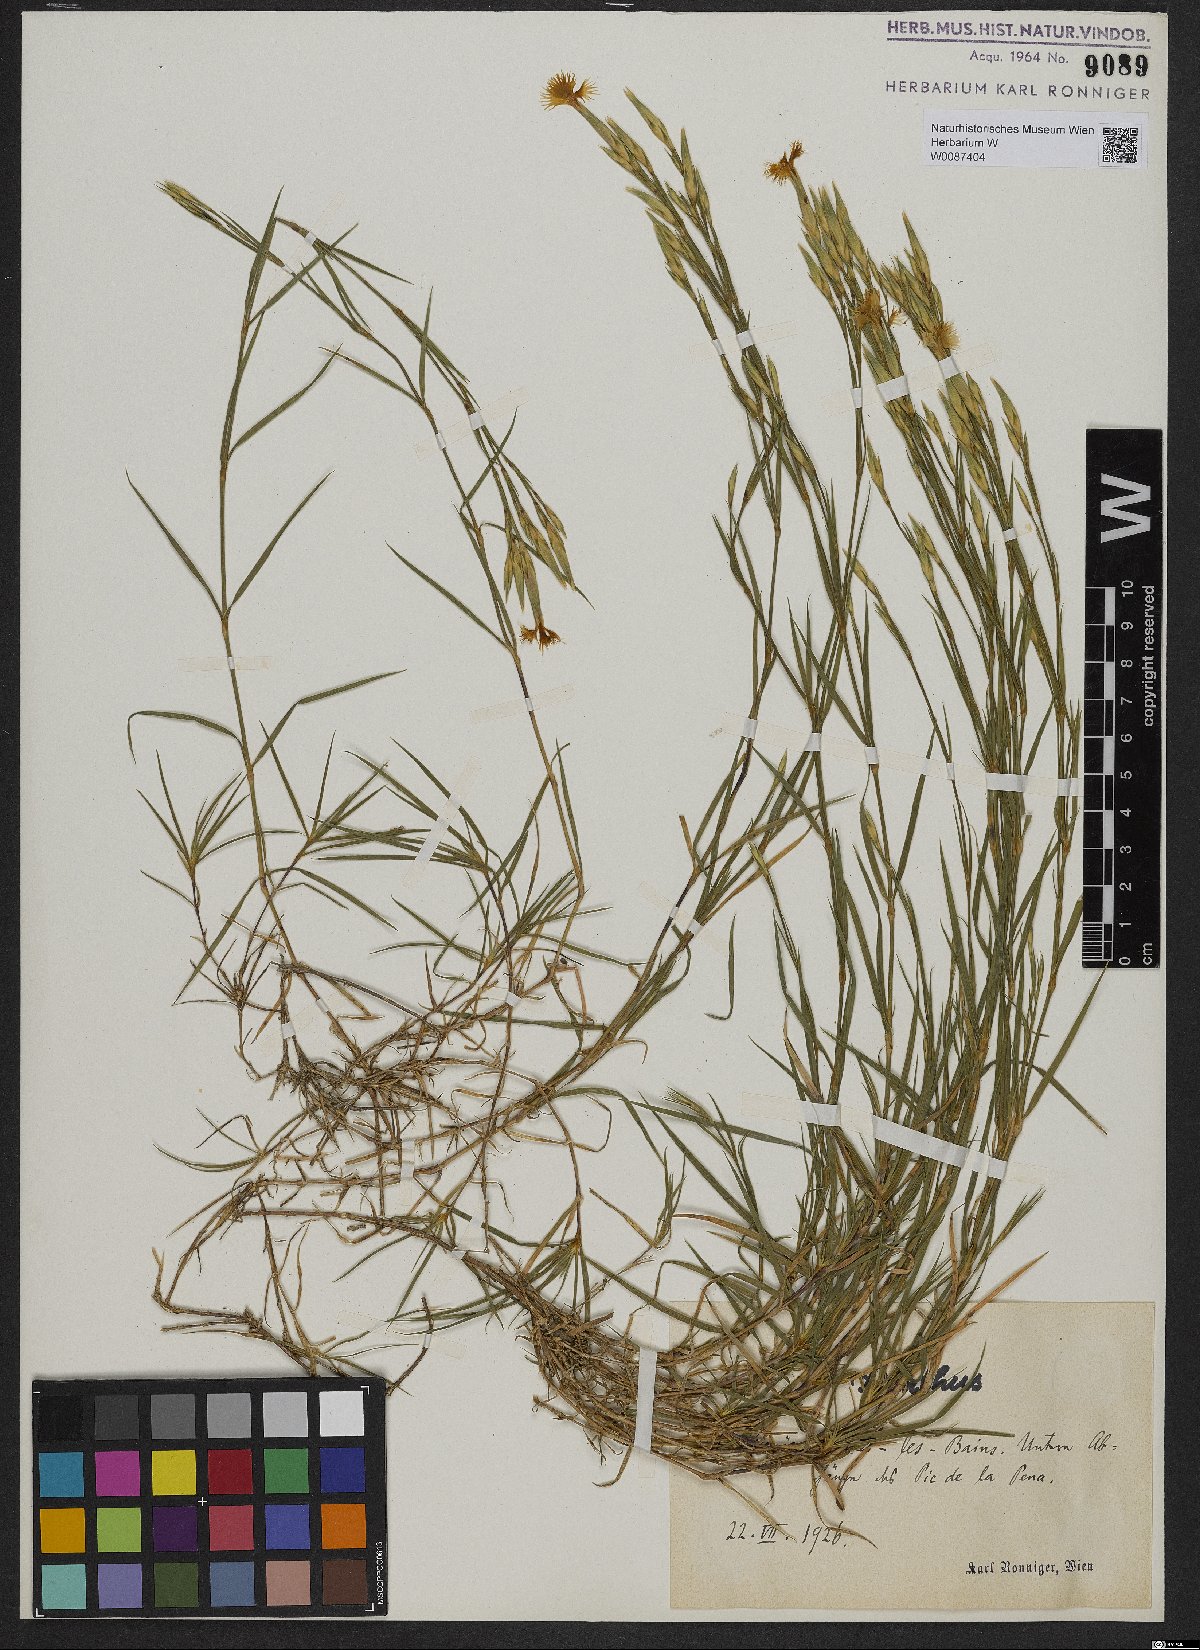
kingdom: Plantae
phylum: Tracheophyta
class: Magnoliopsida
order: Caryophyllales
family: Caryophyllaceae
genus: Dianthus
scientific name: Dianthus
